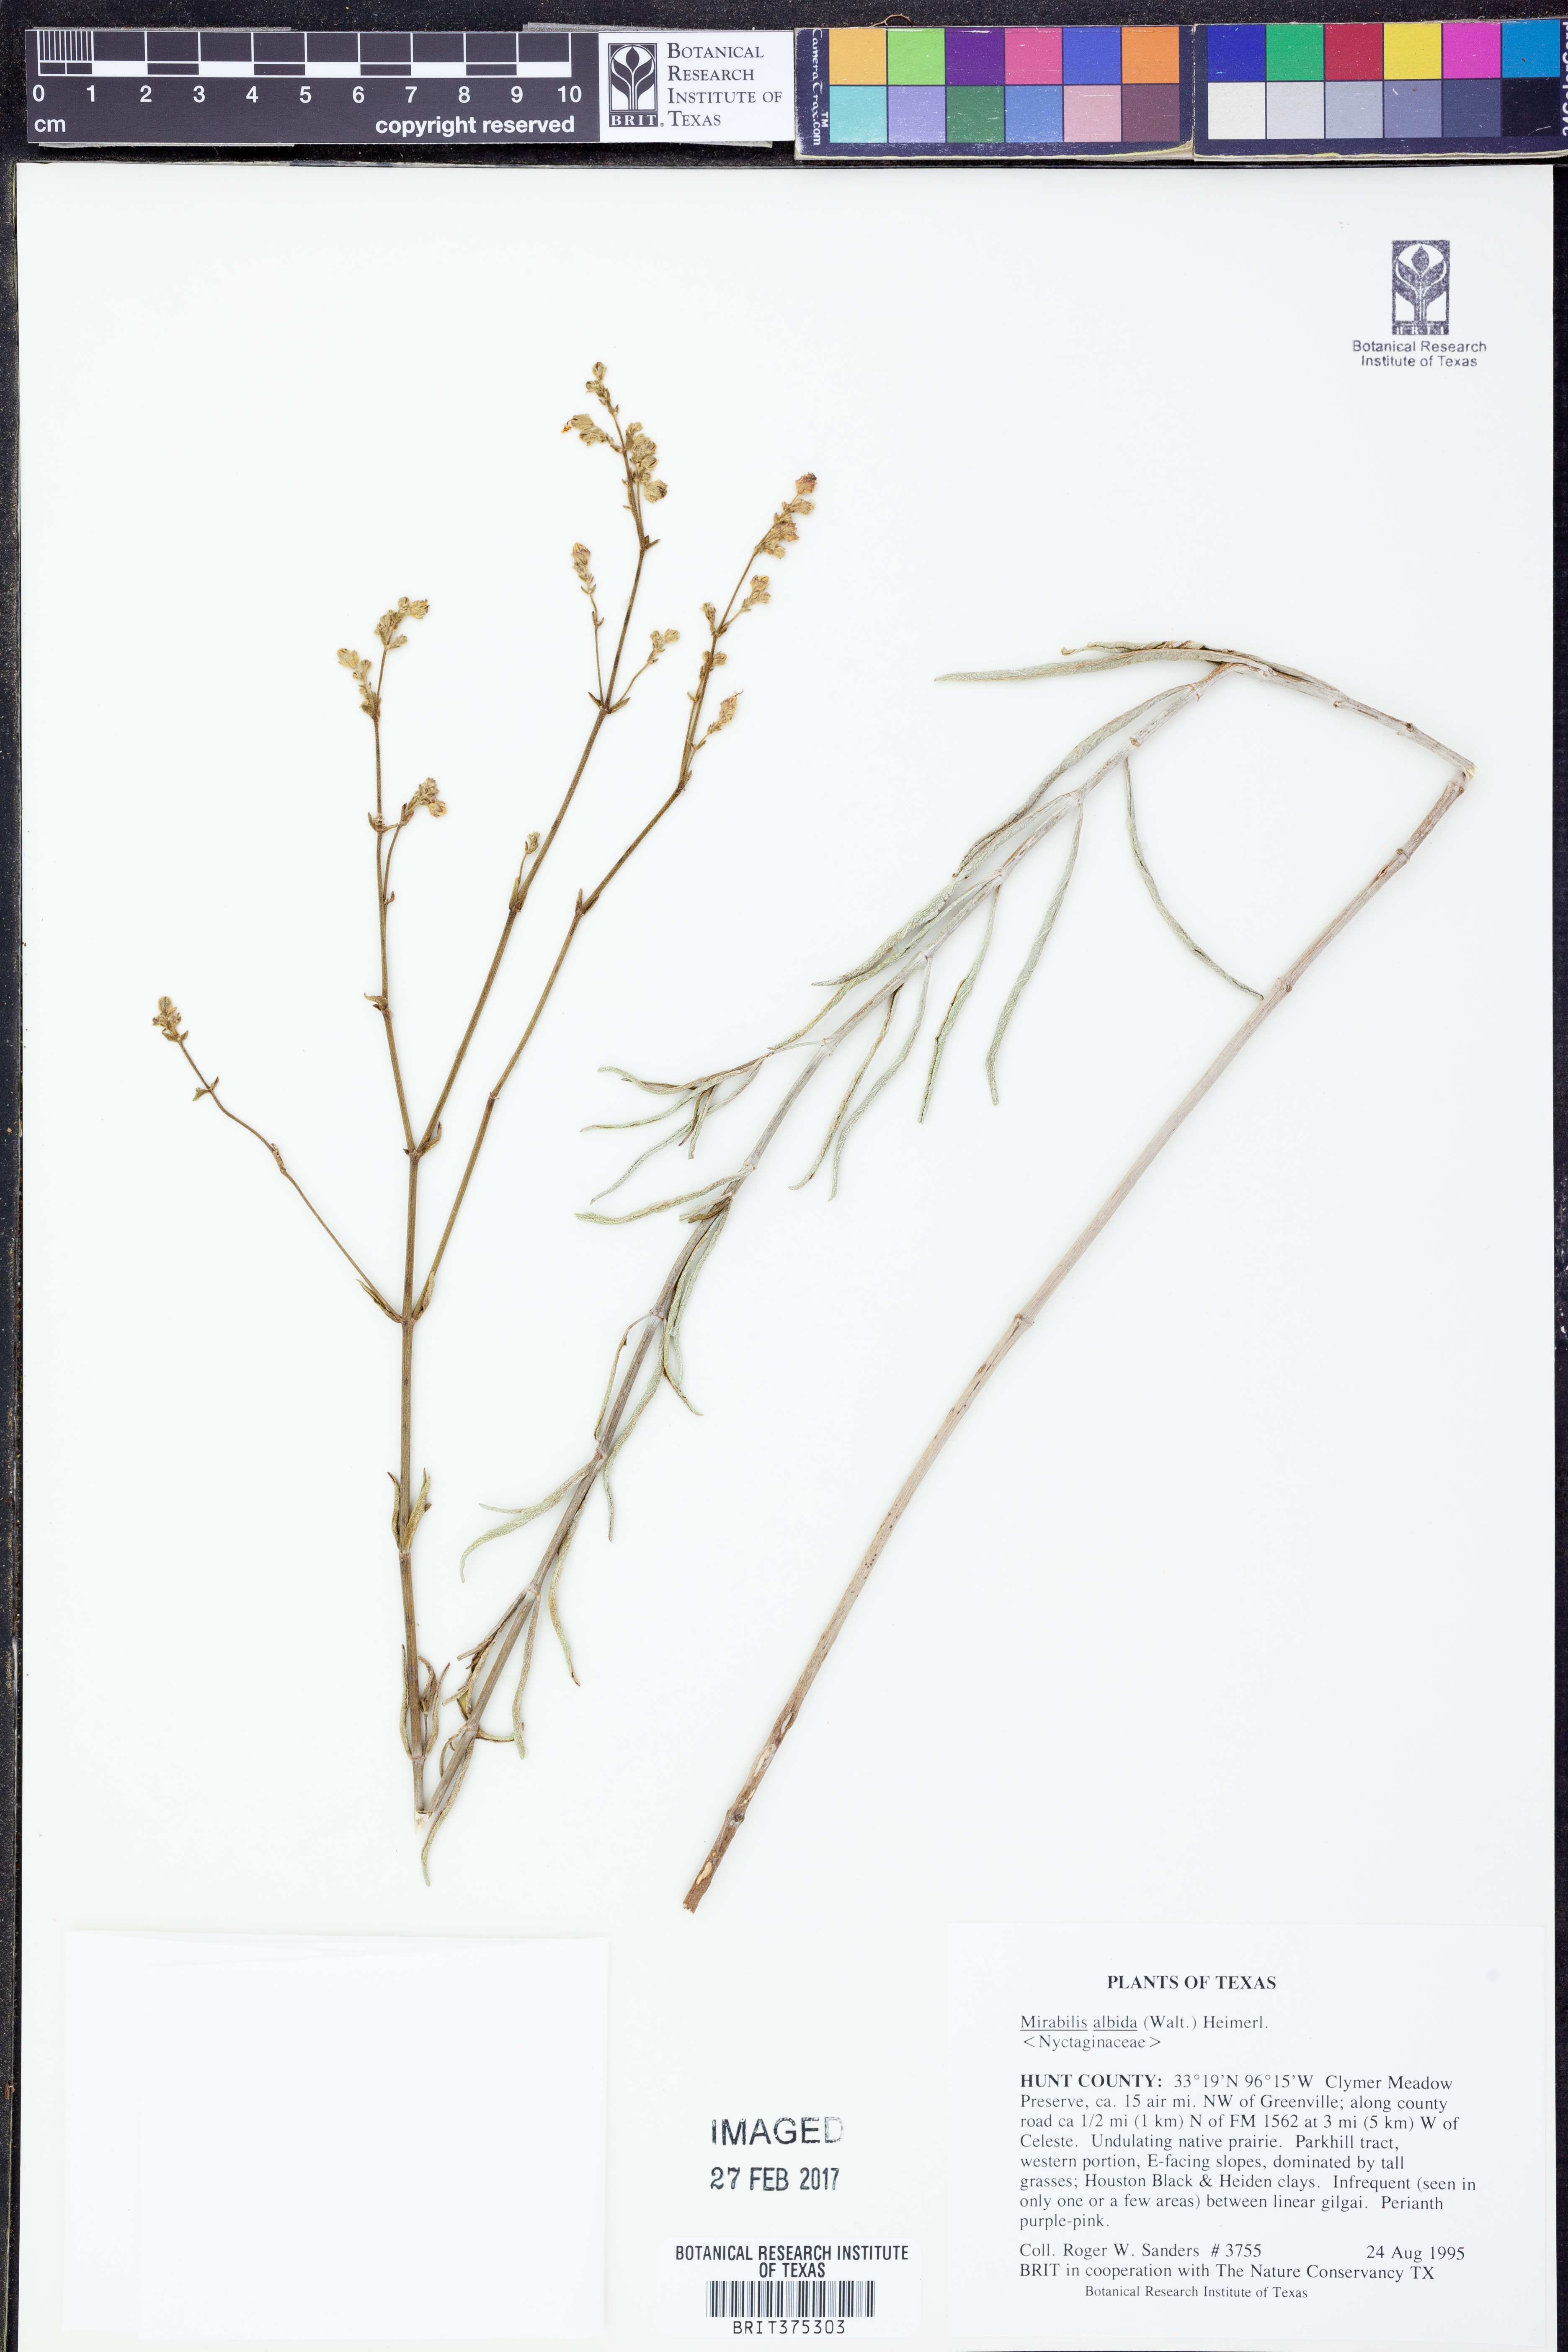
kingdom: Plantae
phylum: Tracheophyta
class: Magnoliopsida
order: Caryophyllales
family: Nyctaginaceae
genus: Mirabilis
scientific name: Mirabilis albida
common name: Hairy four-o'clock
